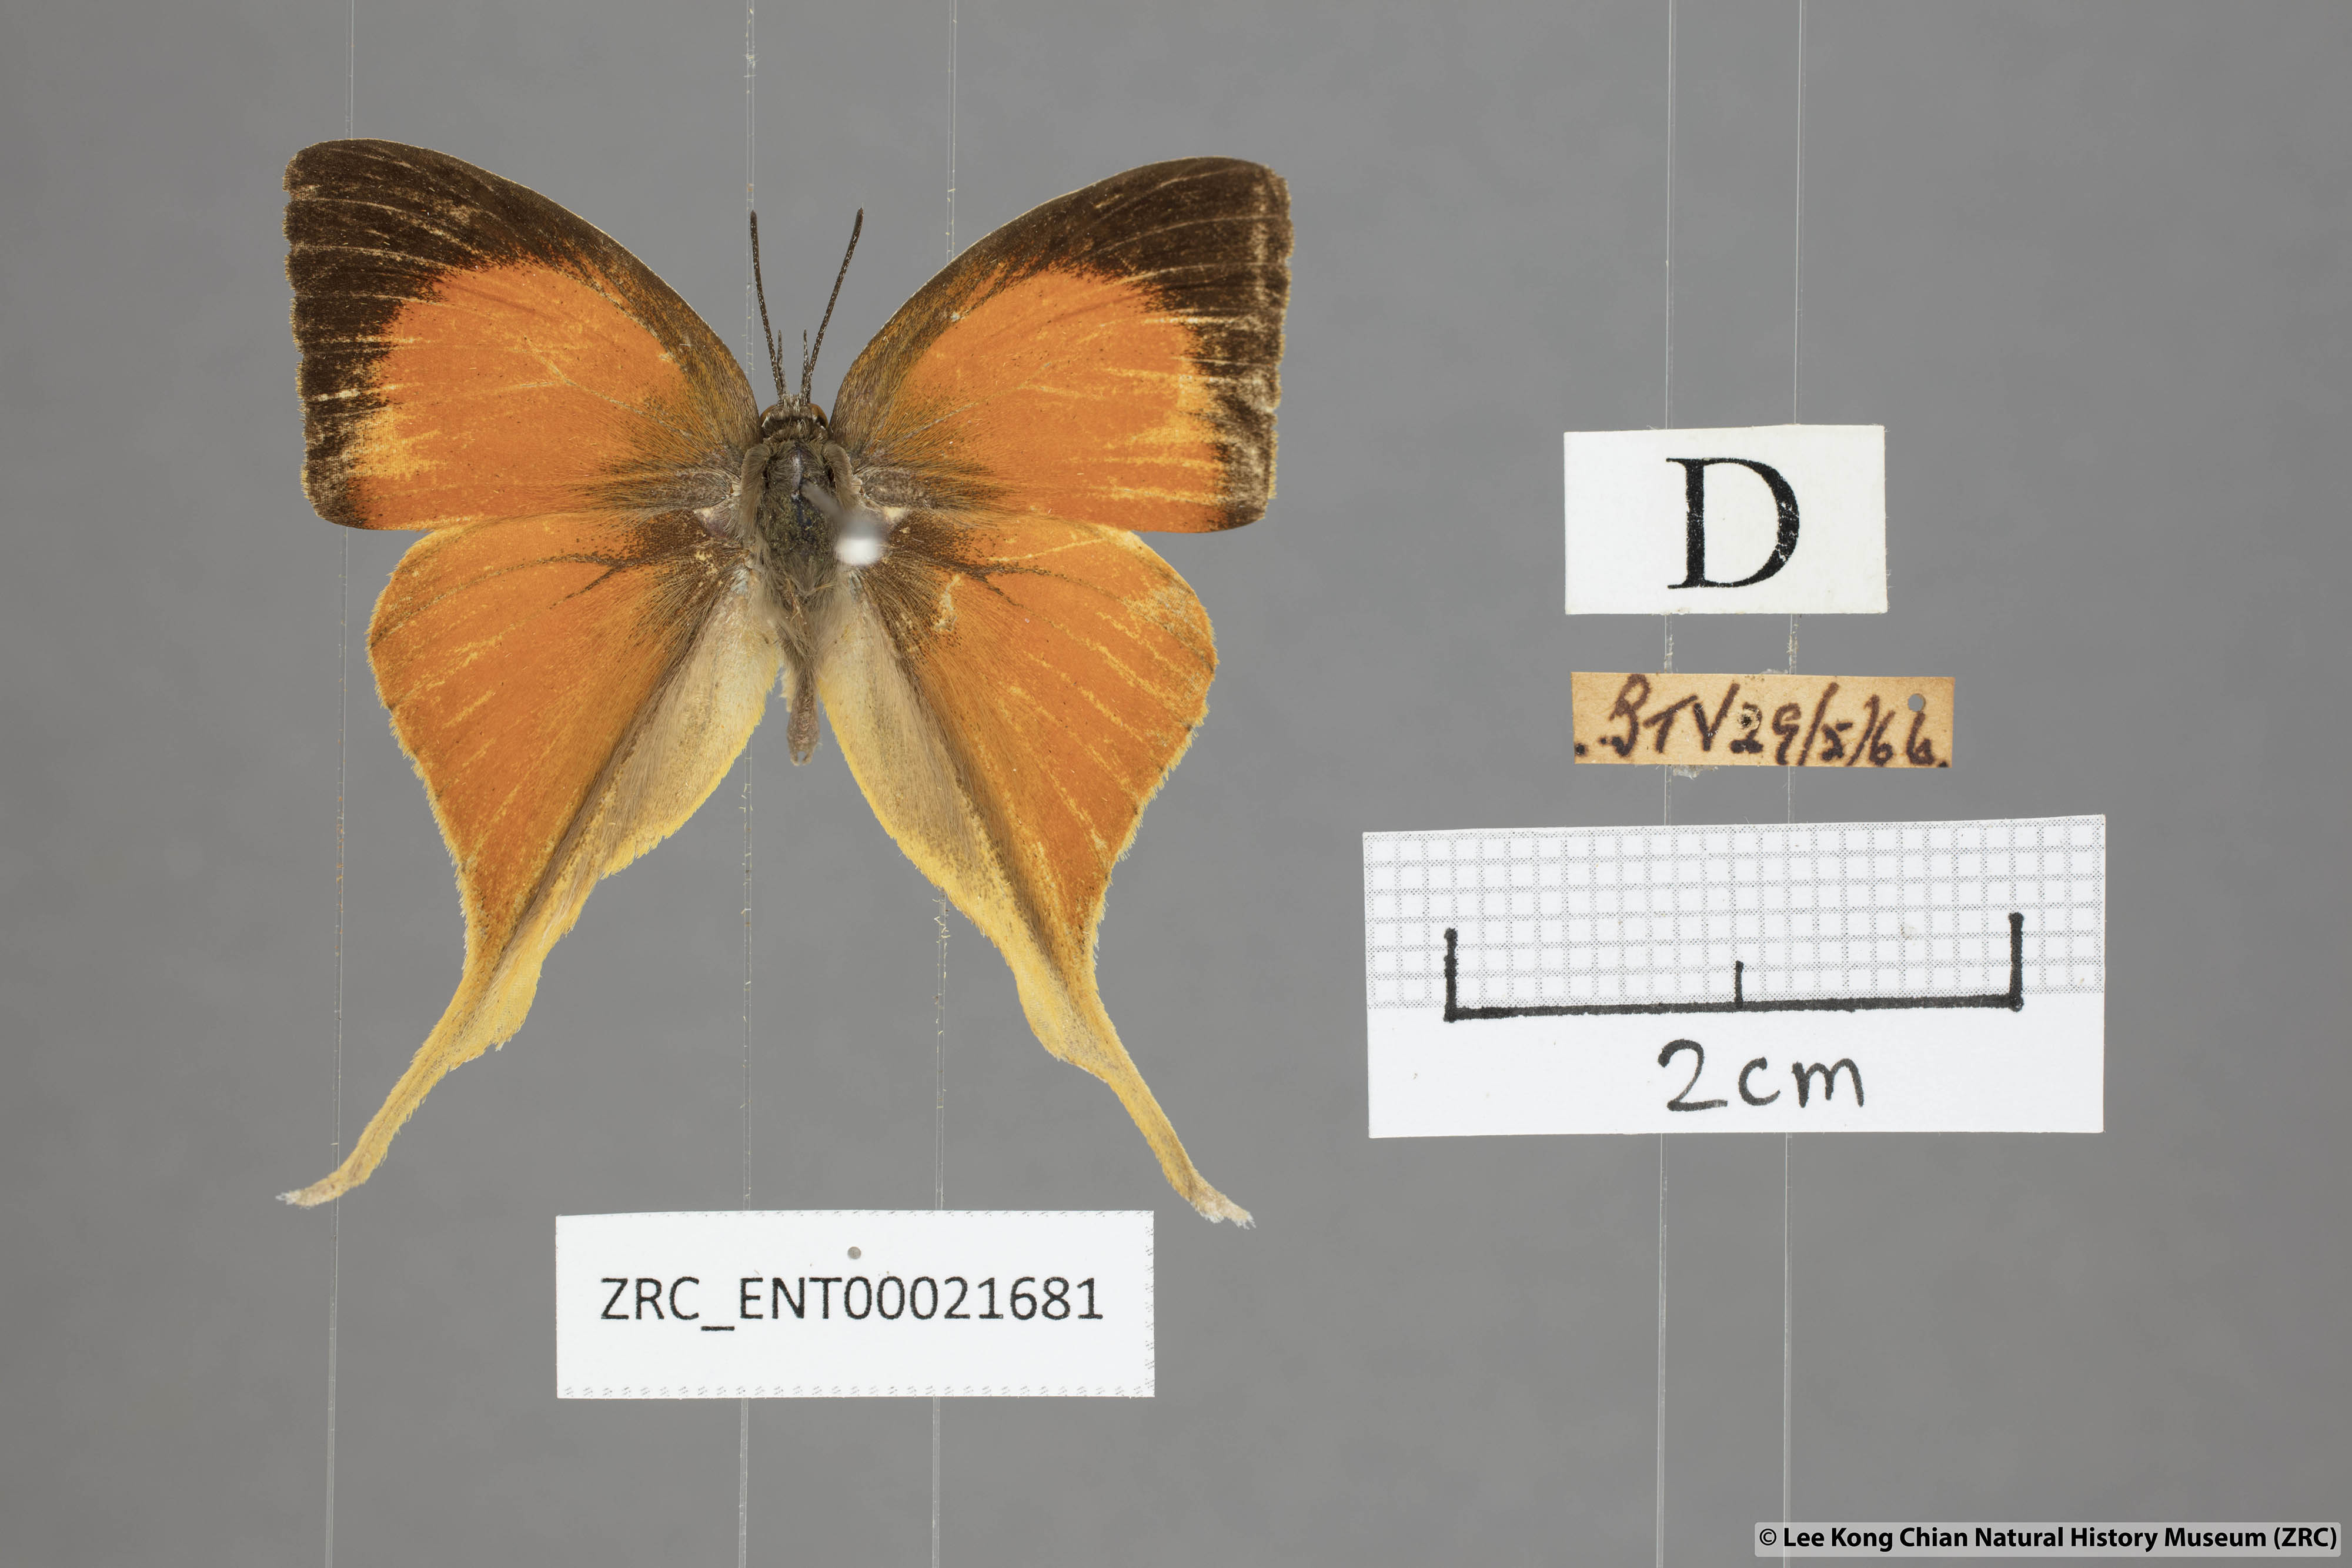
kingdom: Animalia
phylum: Arthropoda
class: Insecta
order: Lepidoptera
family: Lycaenidae
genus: Loxura
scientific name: Loxura cassiopeia
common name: Malayan yamfly
